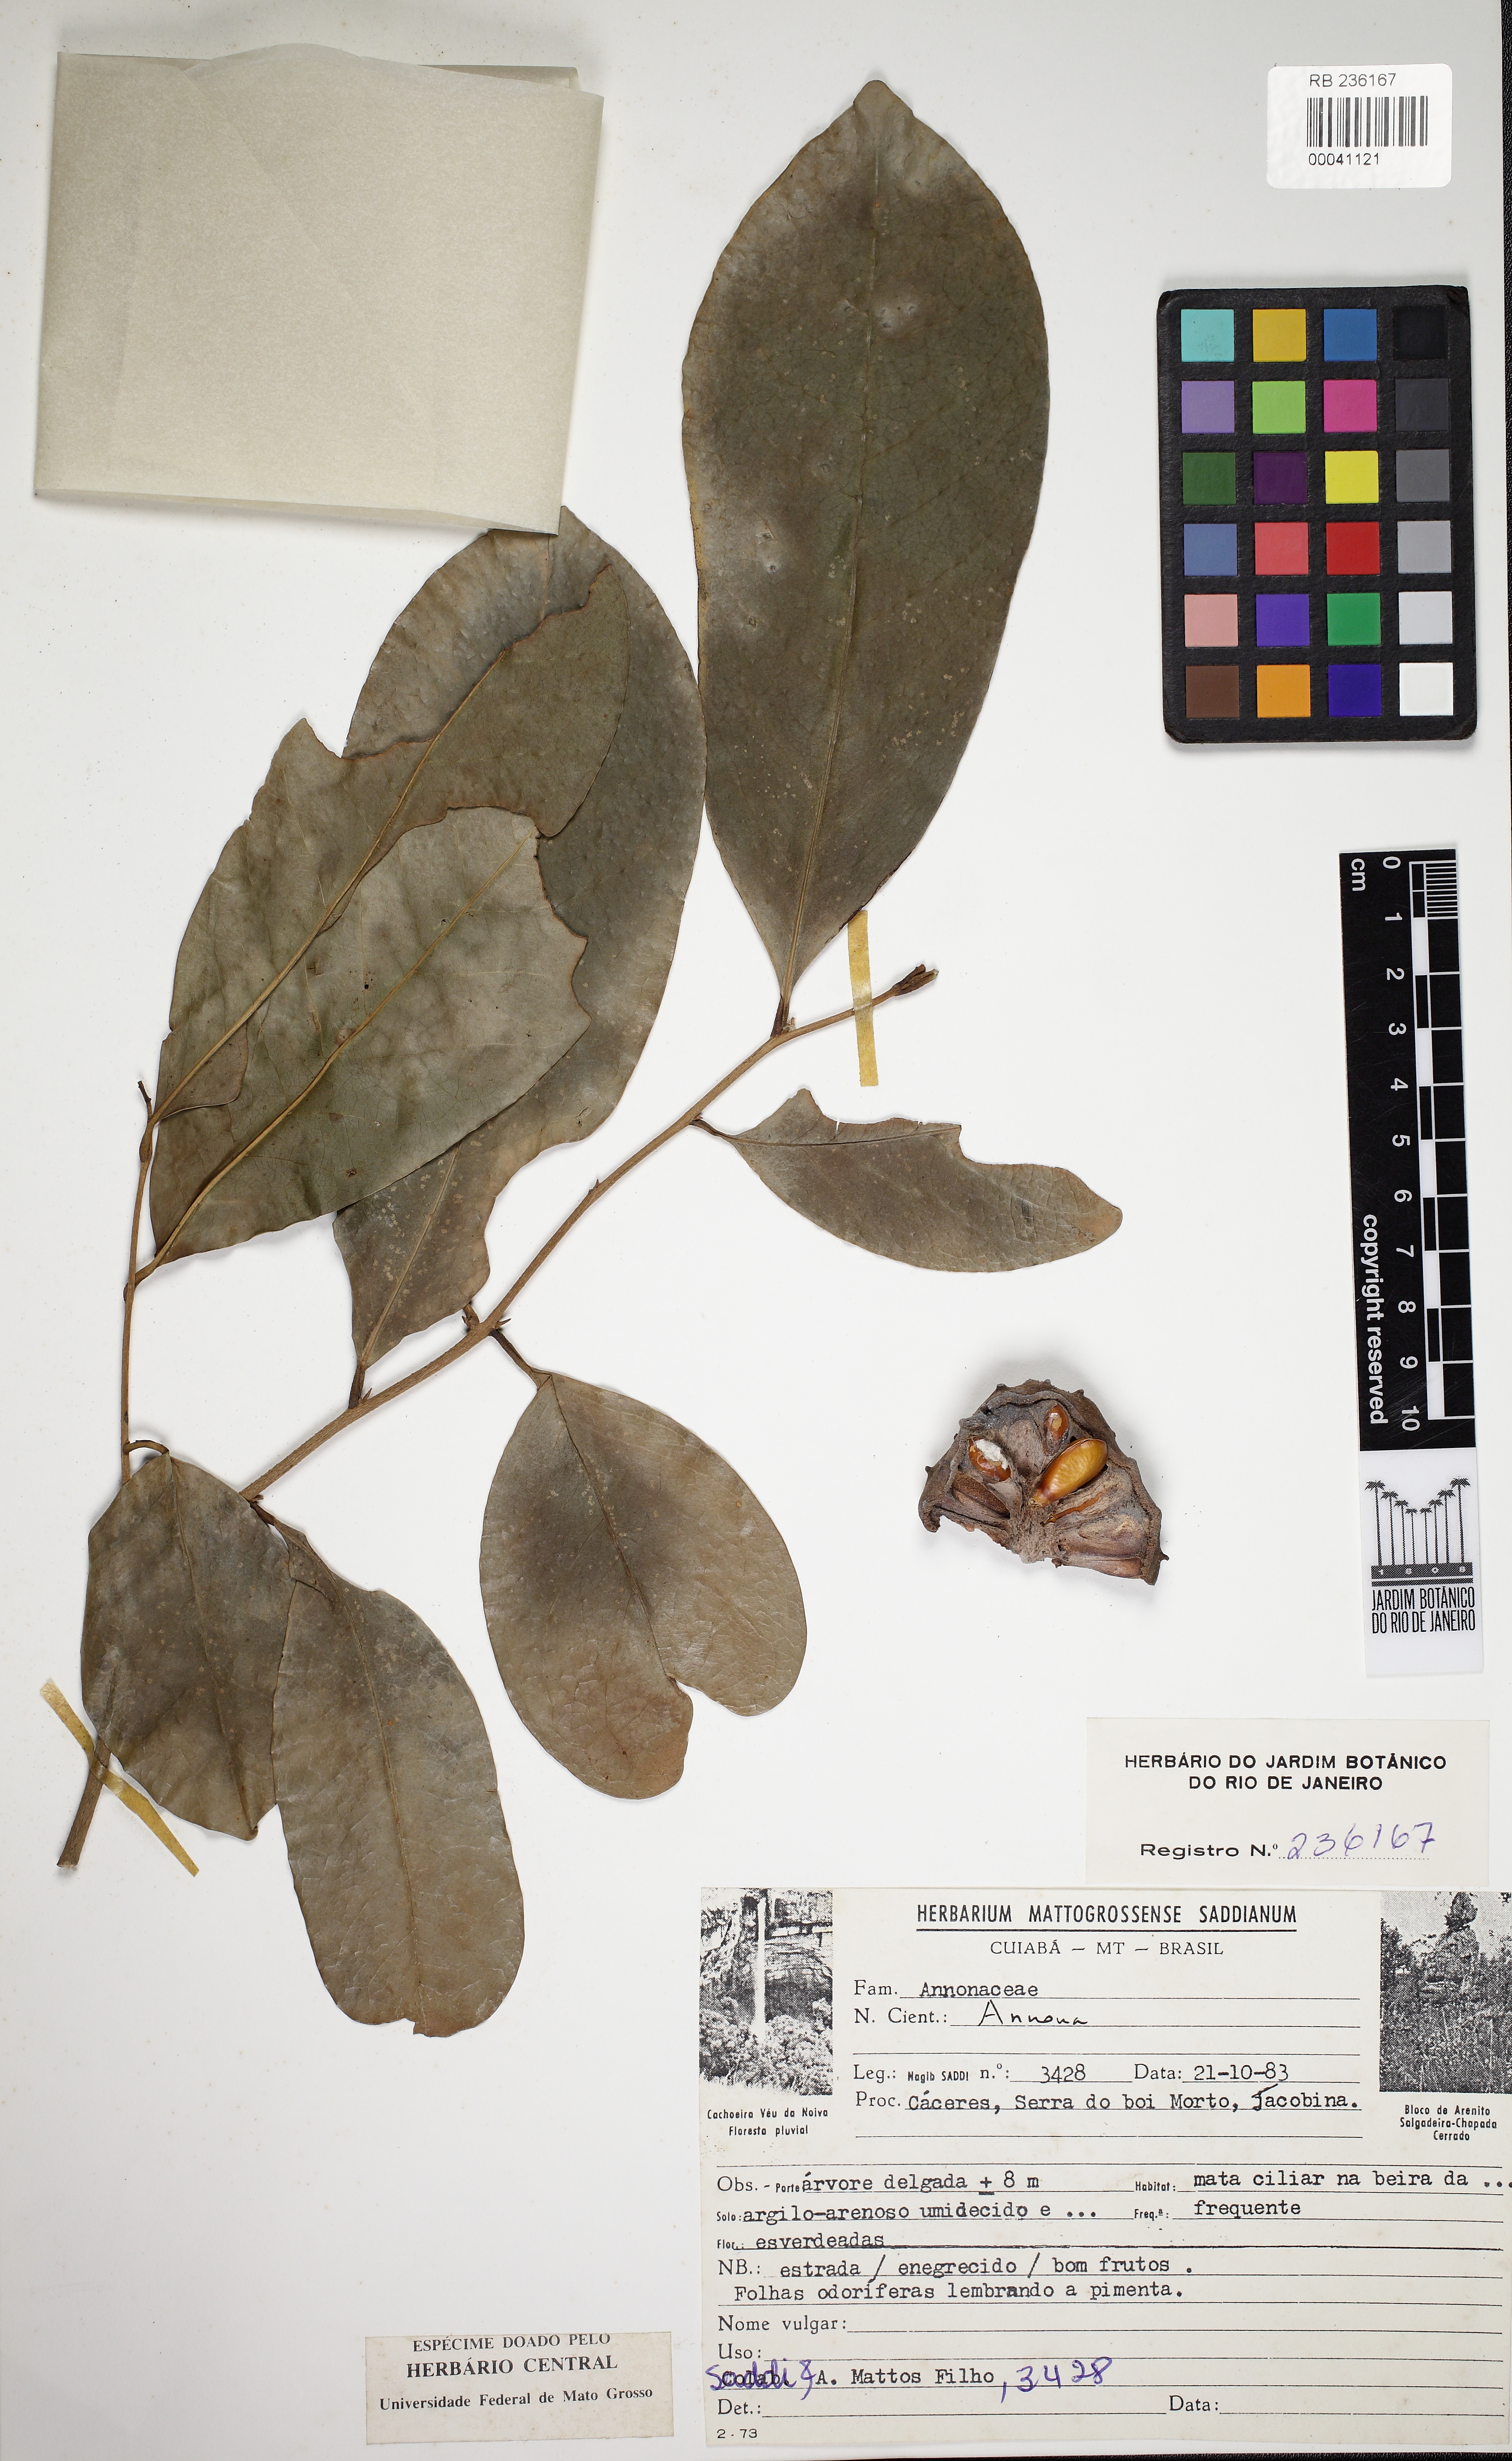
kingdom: Plantae
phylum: Tracheophyta
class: Magnoliopsida
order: Magnoliales
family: Annonaceae
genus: Annona
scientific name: Annona montana
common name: Mountain soursop
